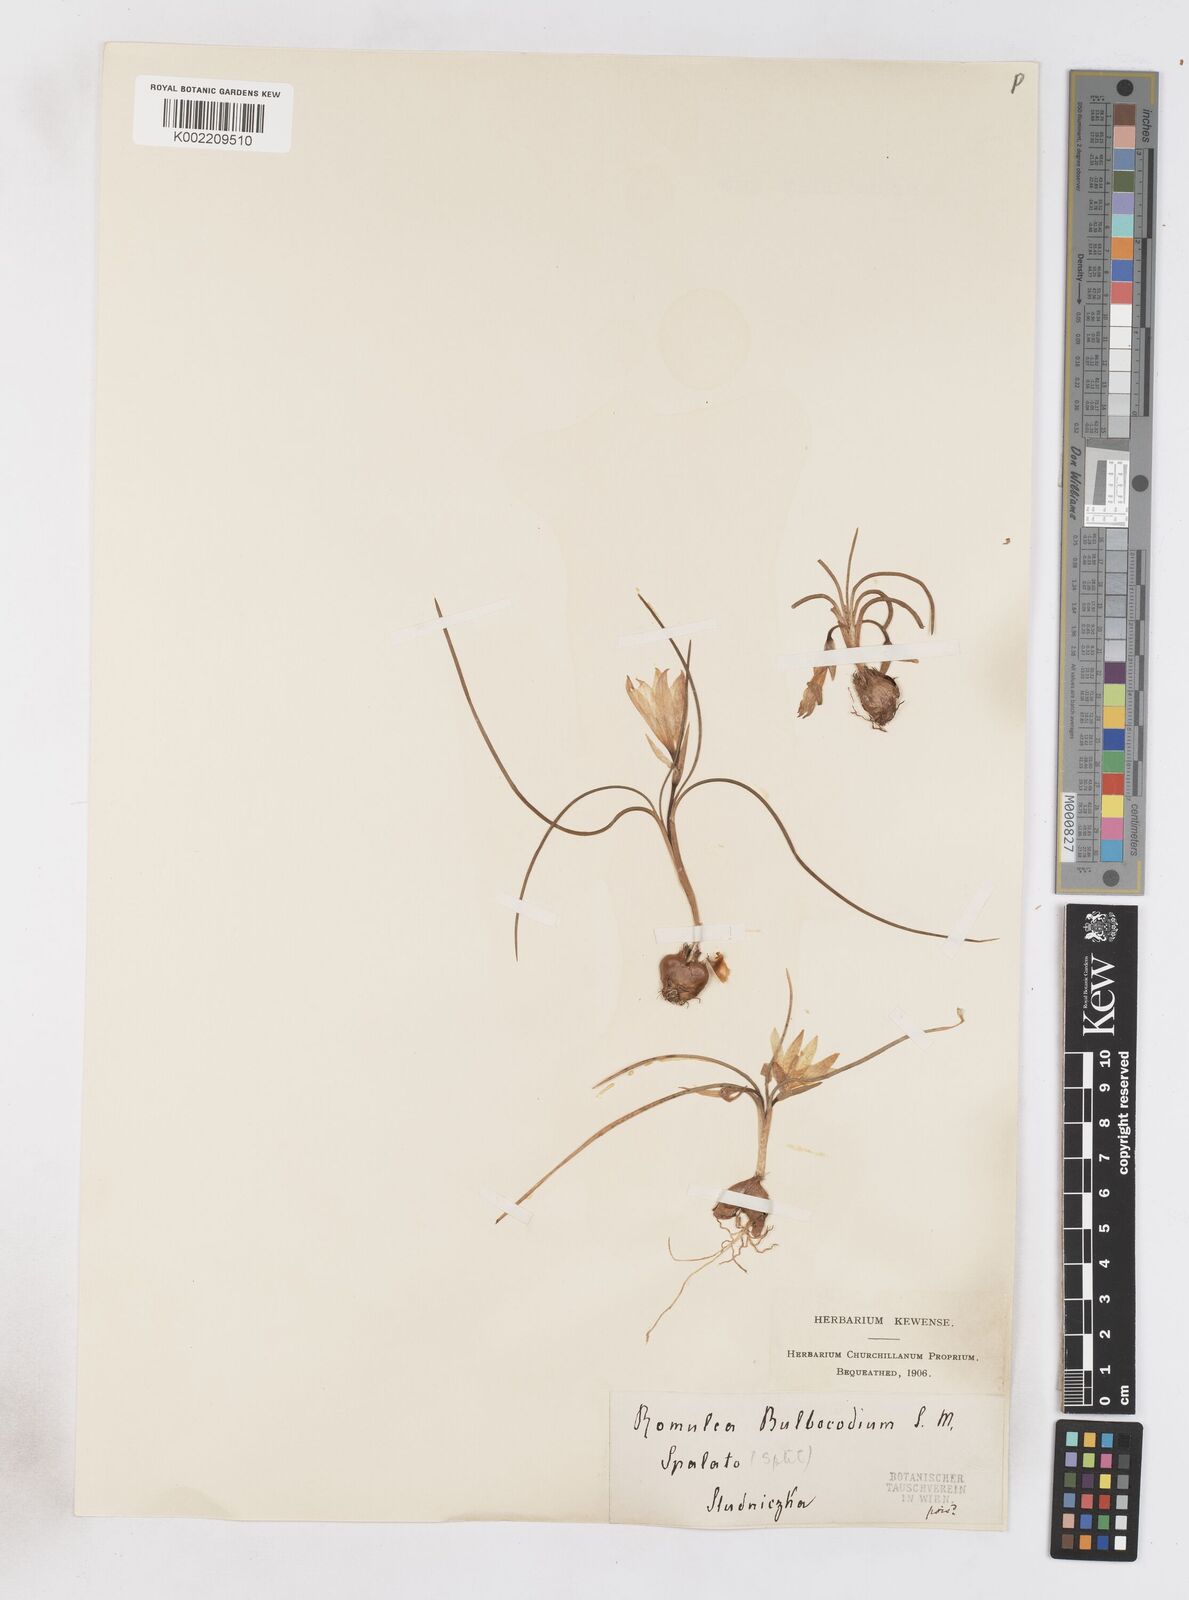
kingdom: Plantae
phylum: Tracheophyta
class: Liliopsida
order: Asparagales
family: Iridaceae
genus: Romulea
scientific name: Romulea bulbocodium
